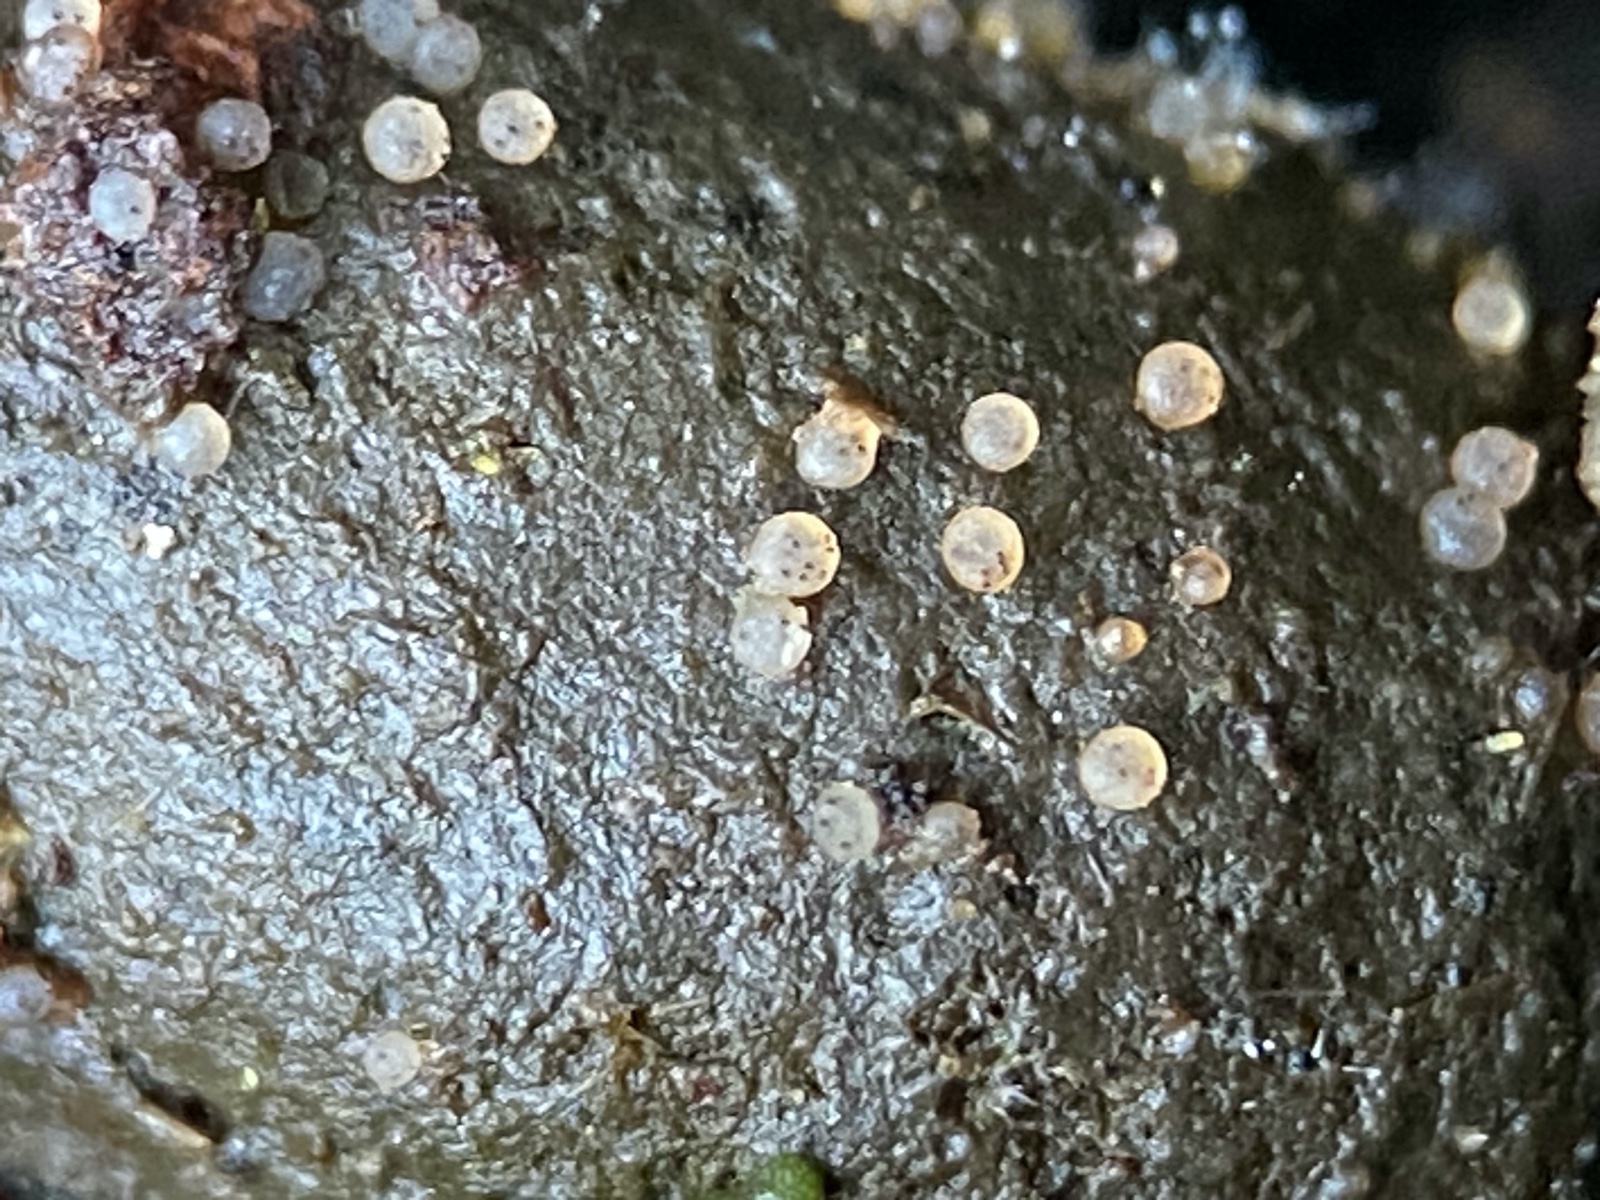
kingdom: Fungi
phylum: Ascomycota
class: Pezizomycetes
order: Pezizales
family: Ascobolaceae
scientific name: Ascobolaceae
